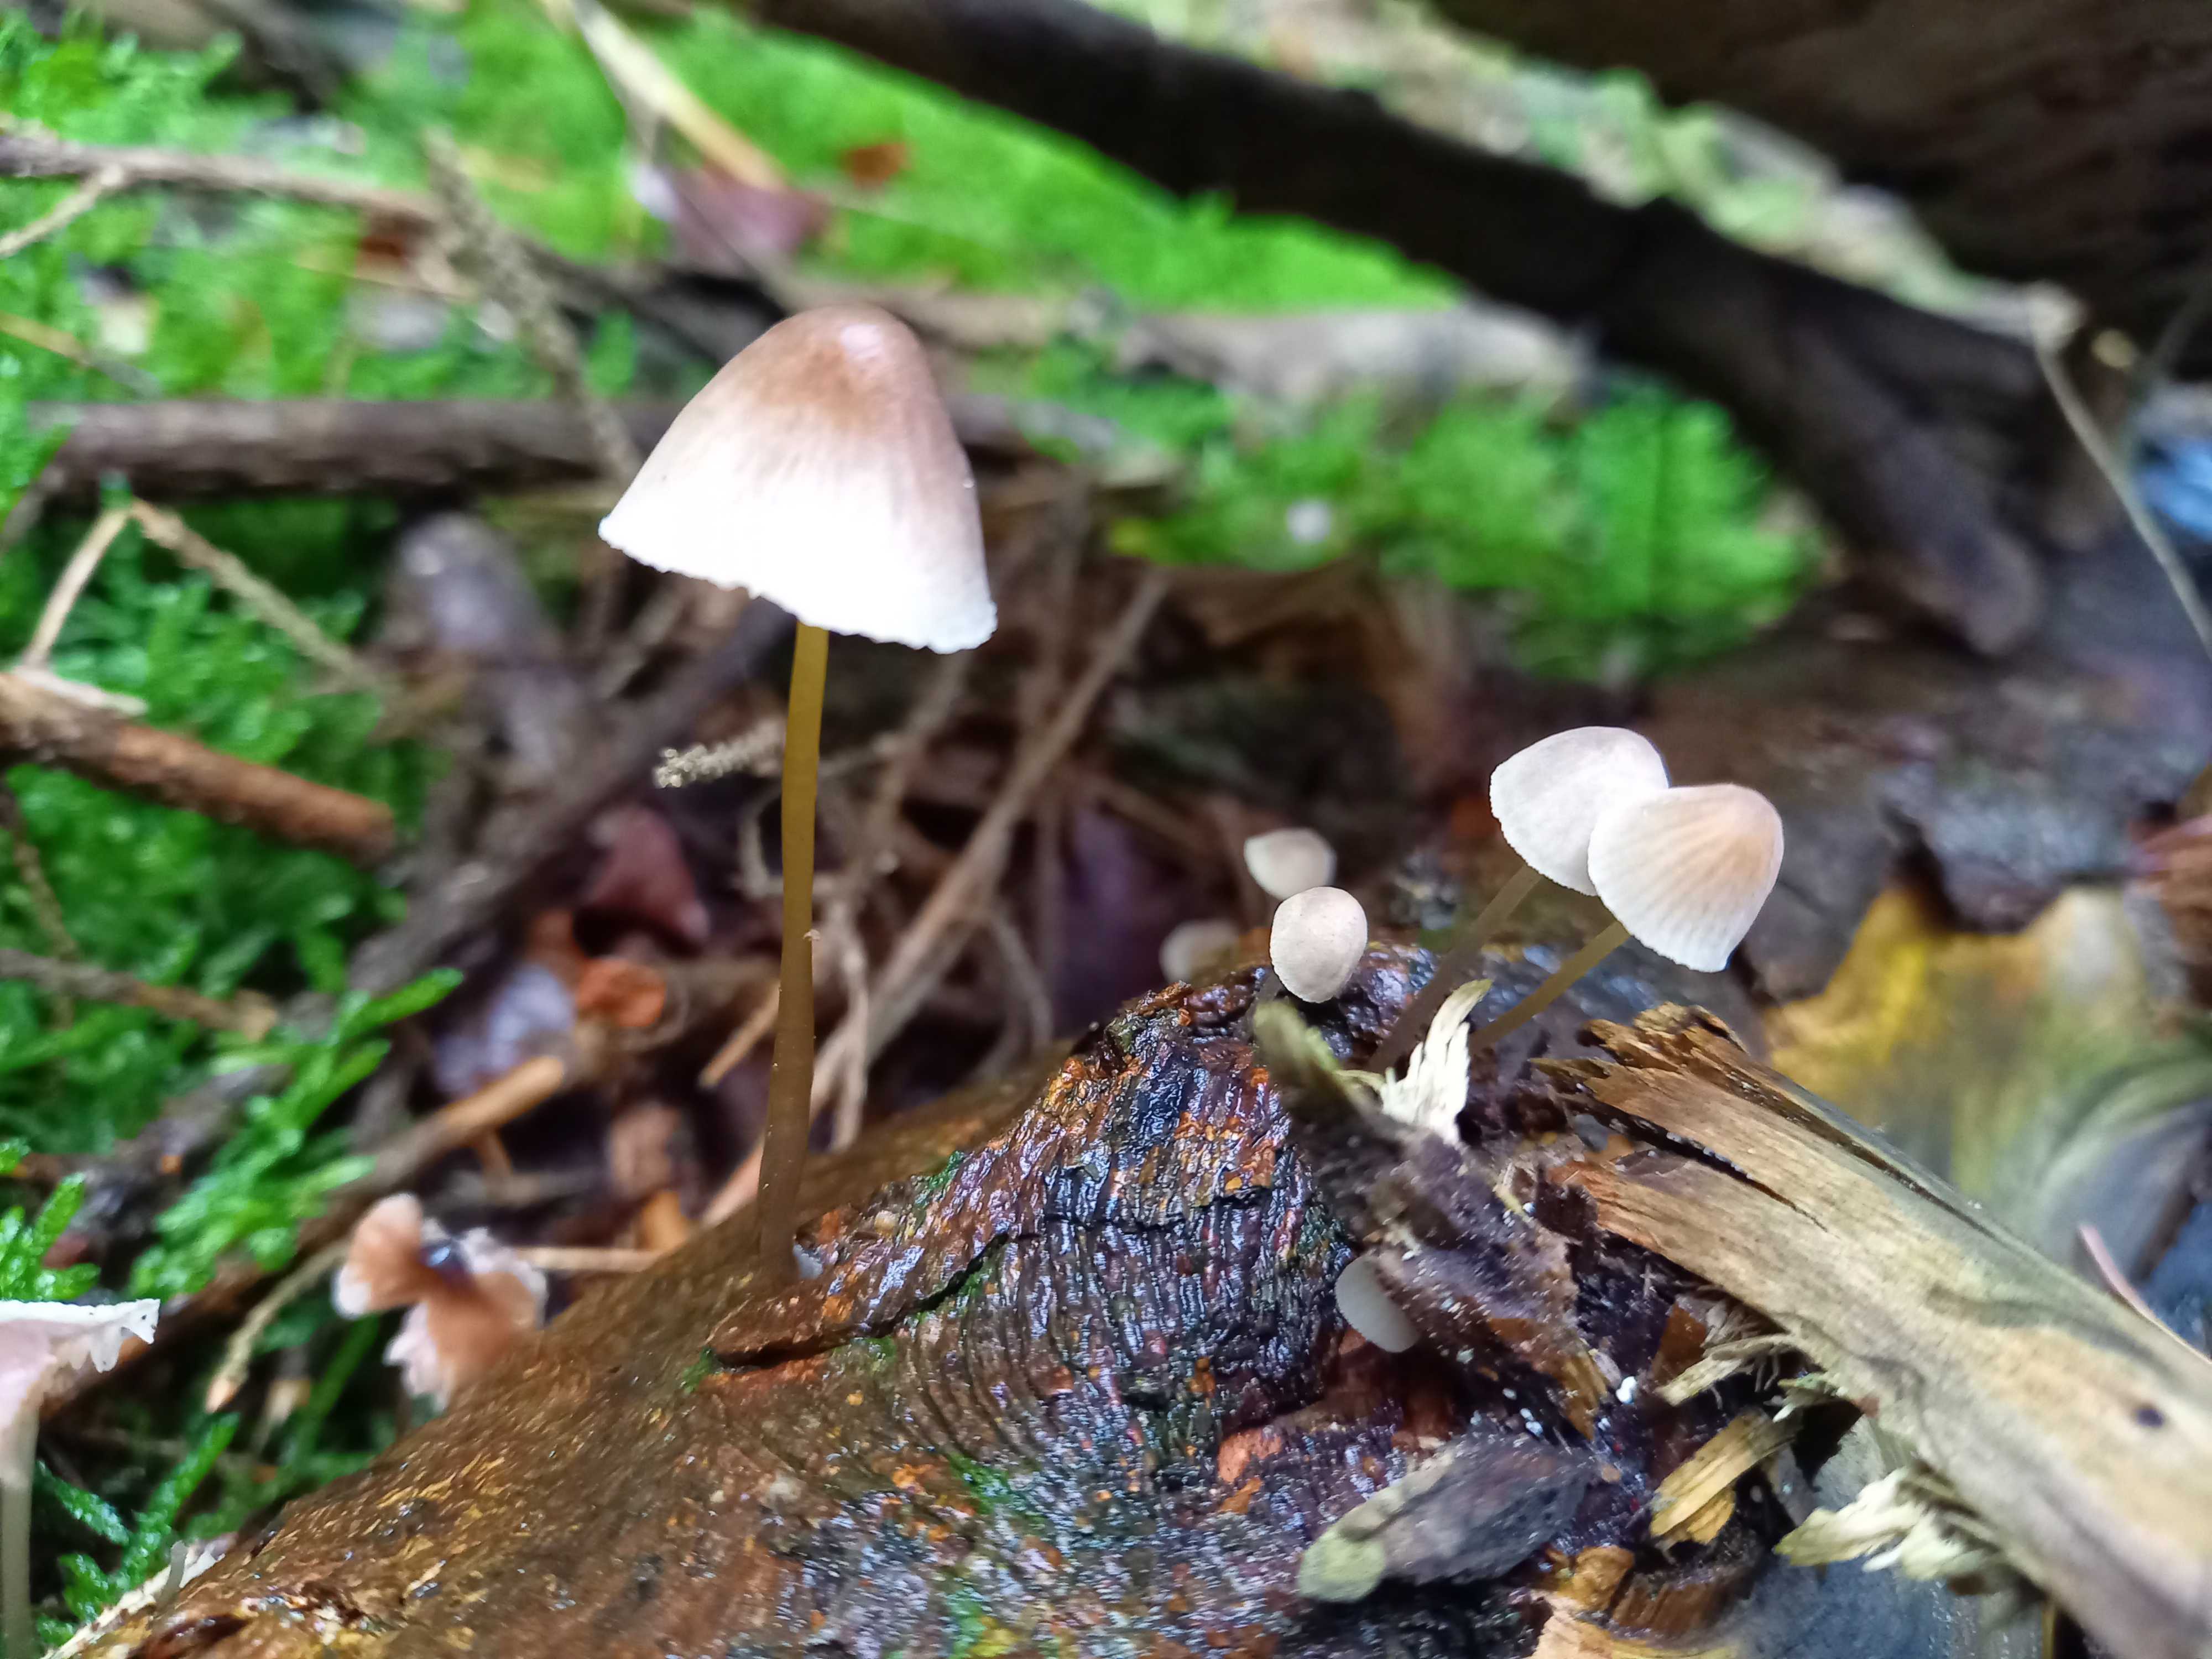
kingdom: Fungi
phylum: Basidiomycota
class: Agaricomycetes
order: Agaricales
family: Mycenaceae
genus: Mycena
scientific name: Mycena metata
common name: rødlig huesvamp
